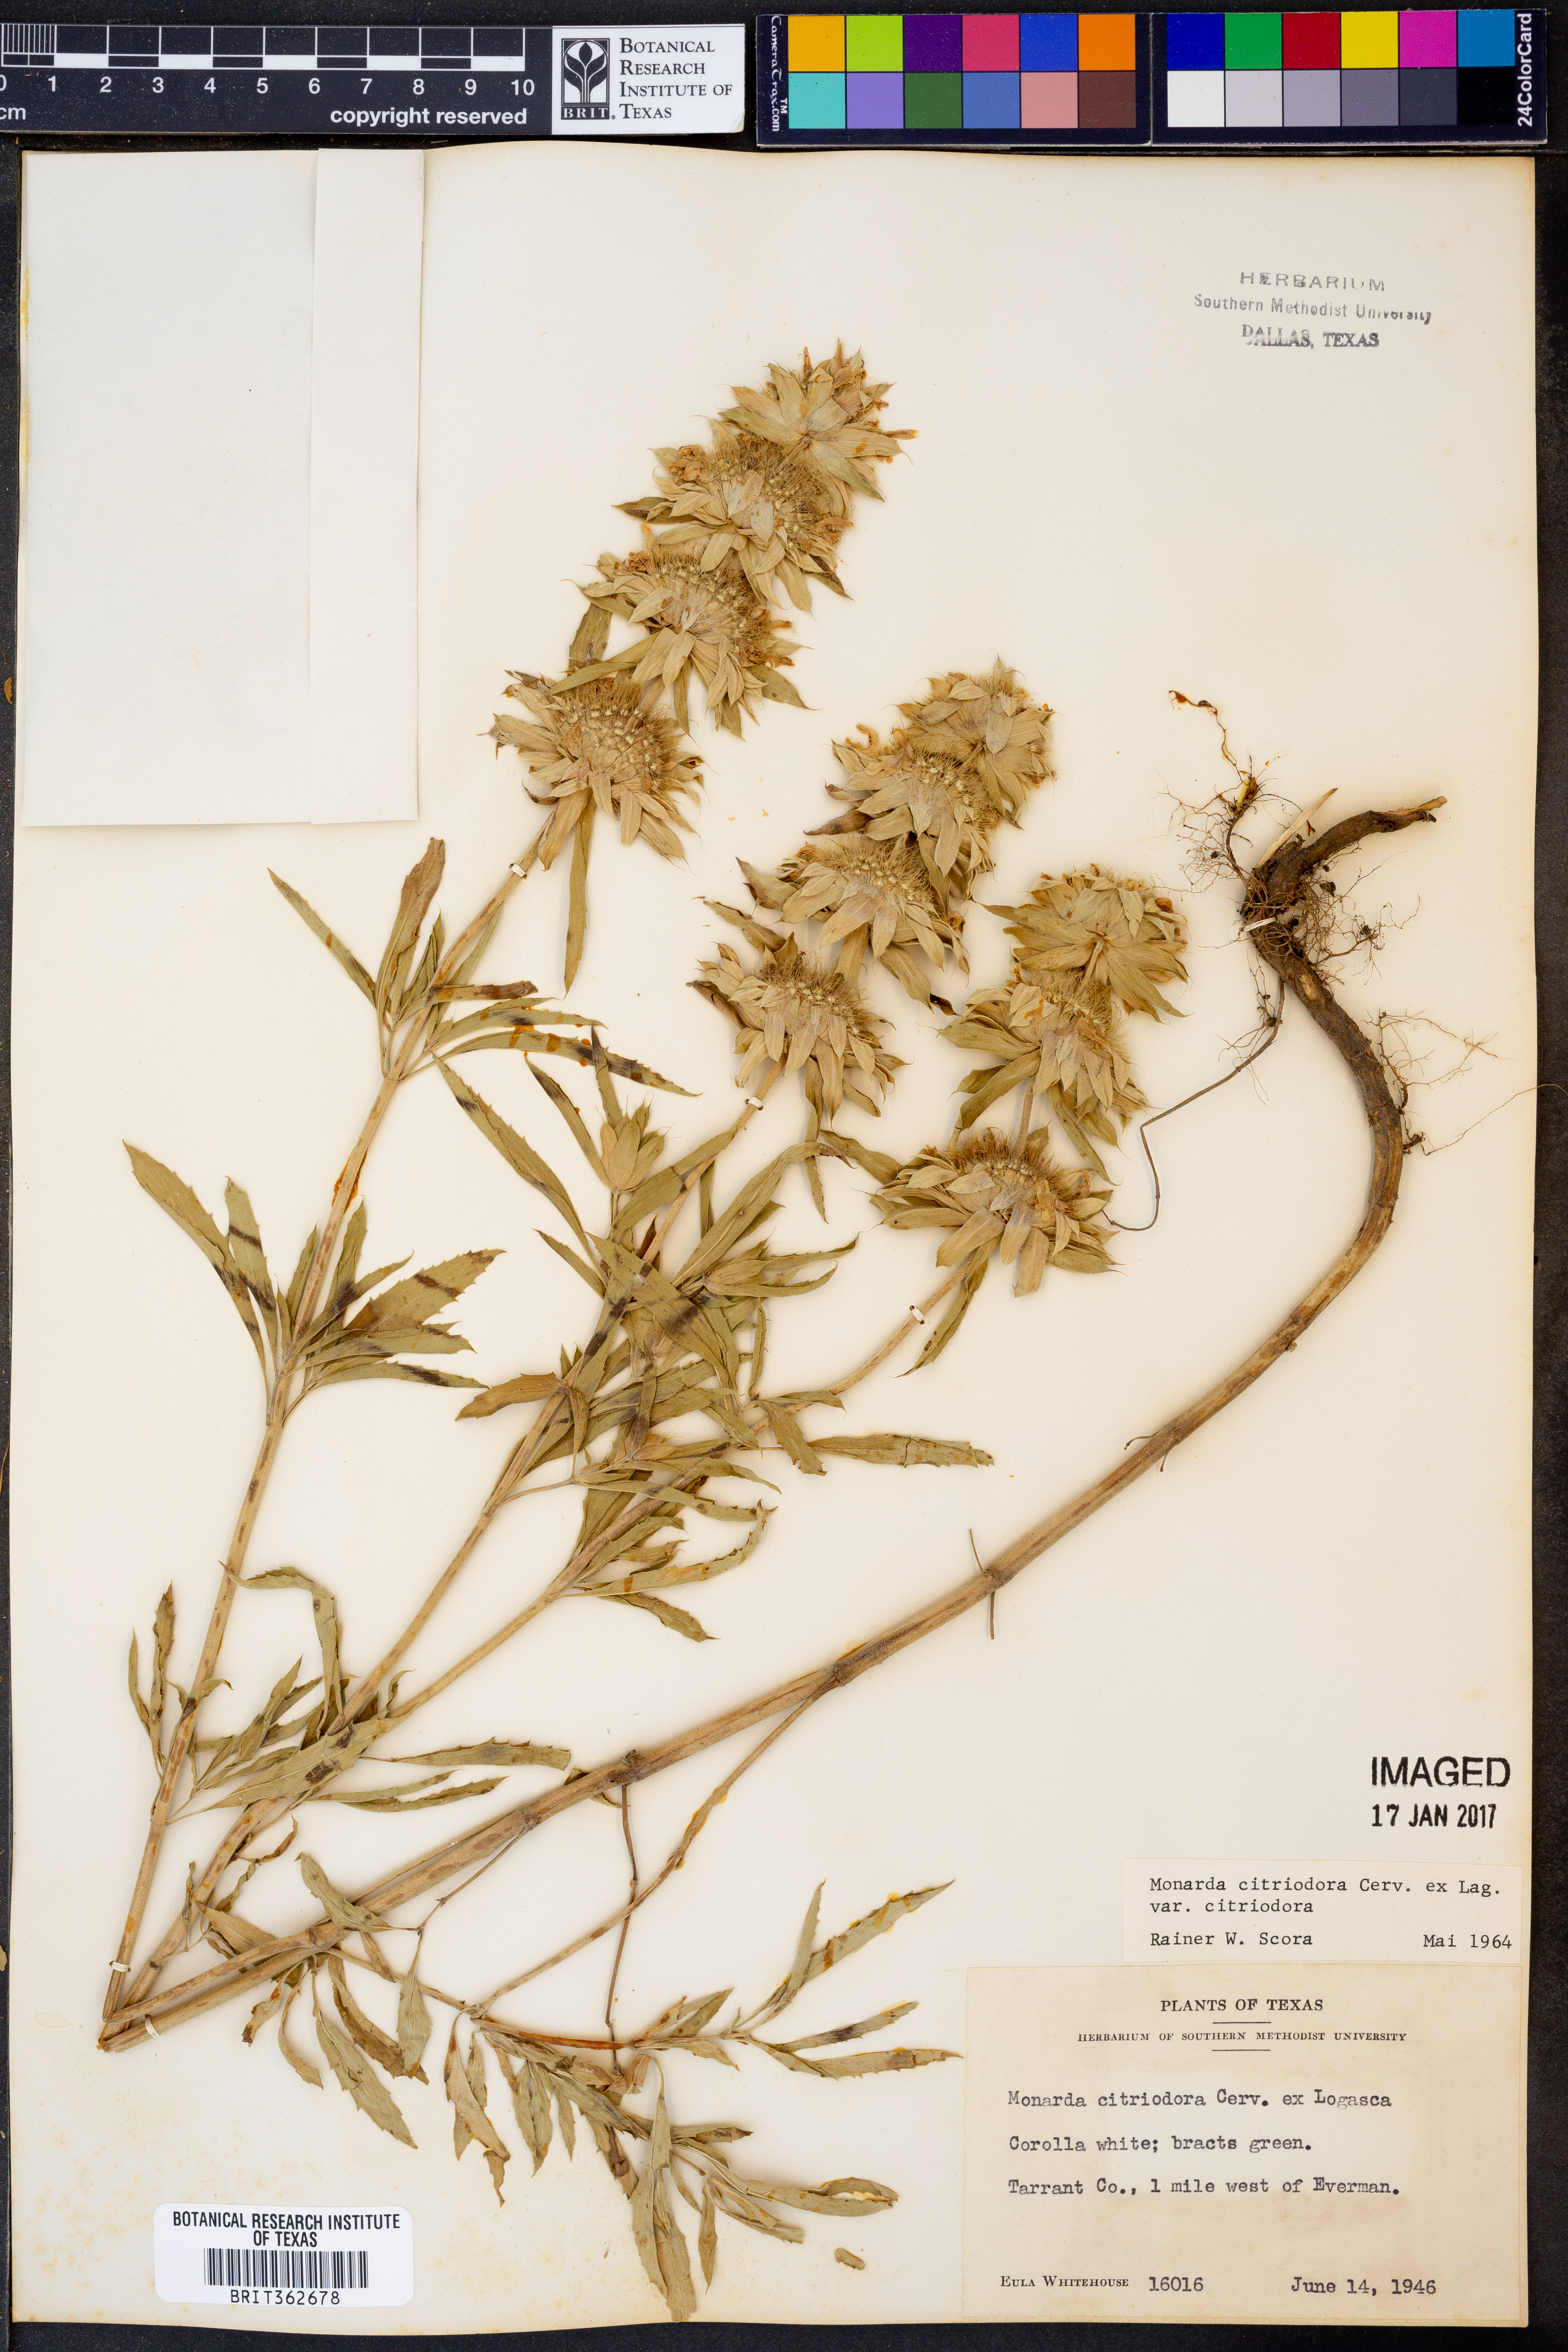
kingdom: Plantae
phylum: Tracheophyta
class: Magnoliopsida
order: Lamiales
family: Lamiaceae
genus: Monarda
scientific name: Monarda citriodora
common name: Lemon beebalm
